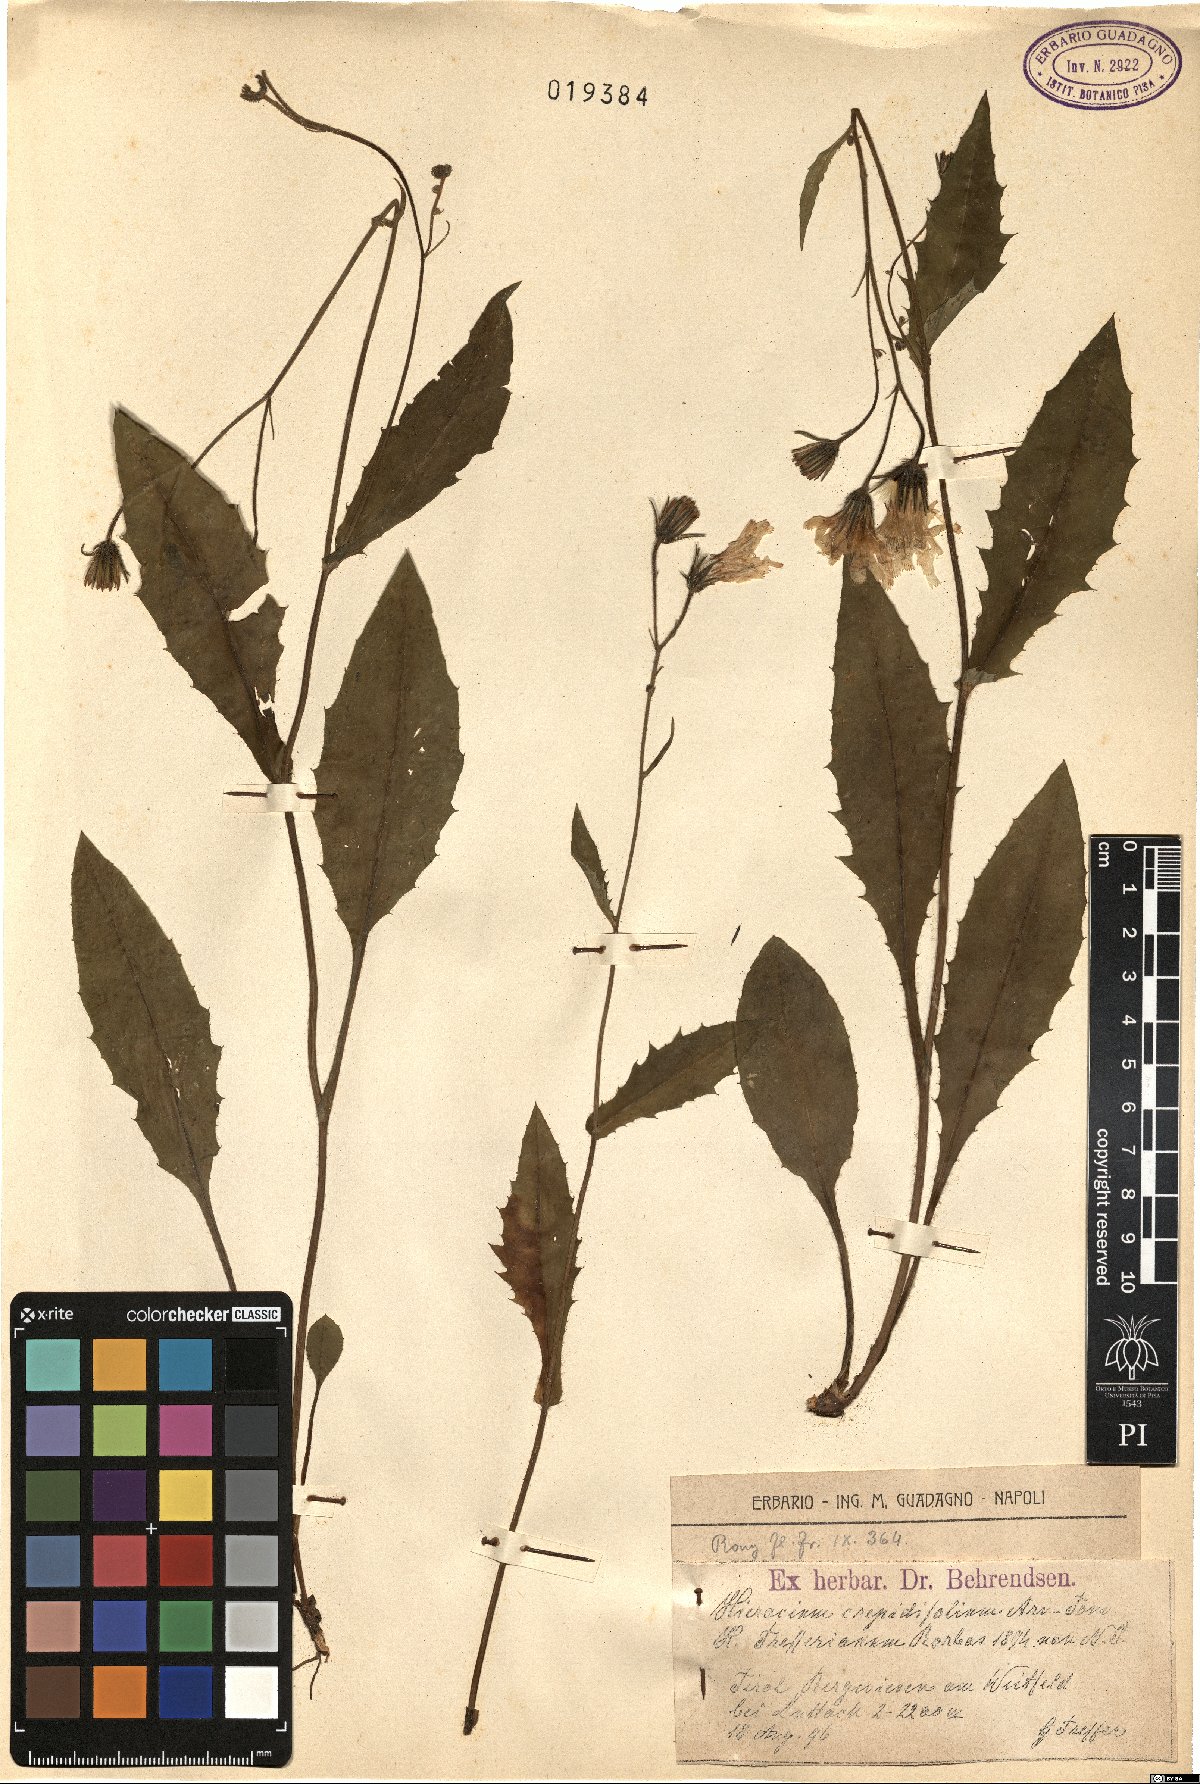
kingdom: Plantae
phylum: Tracheophyta
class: Magnoliopsida
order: Asterales
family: Asteraceae
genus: Hieracium
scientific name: Hieracium umbrosum
